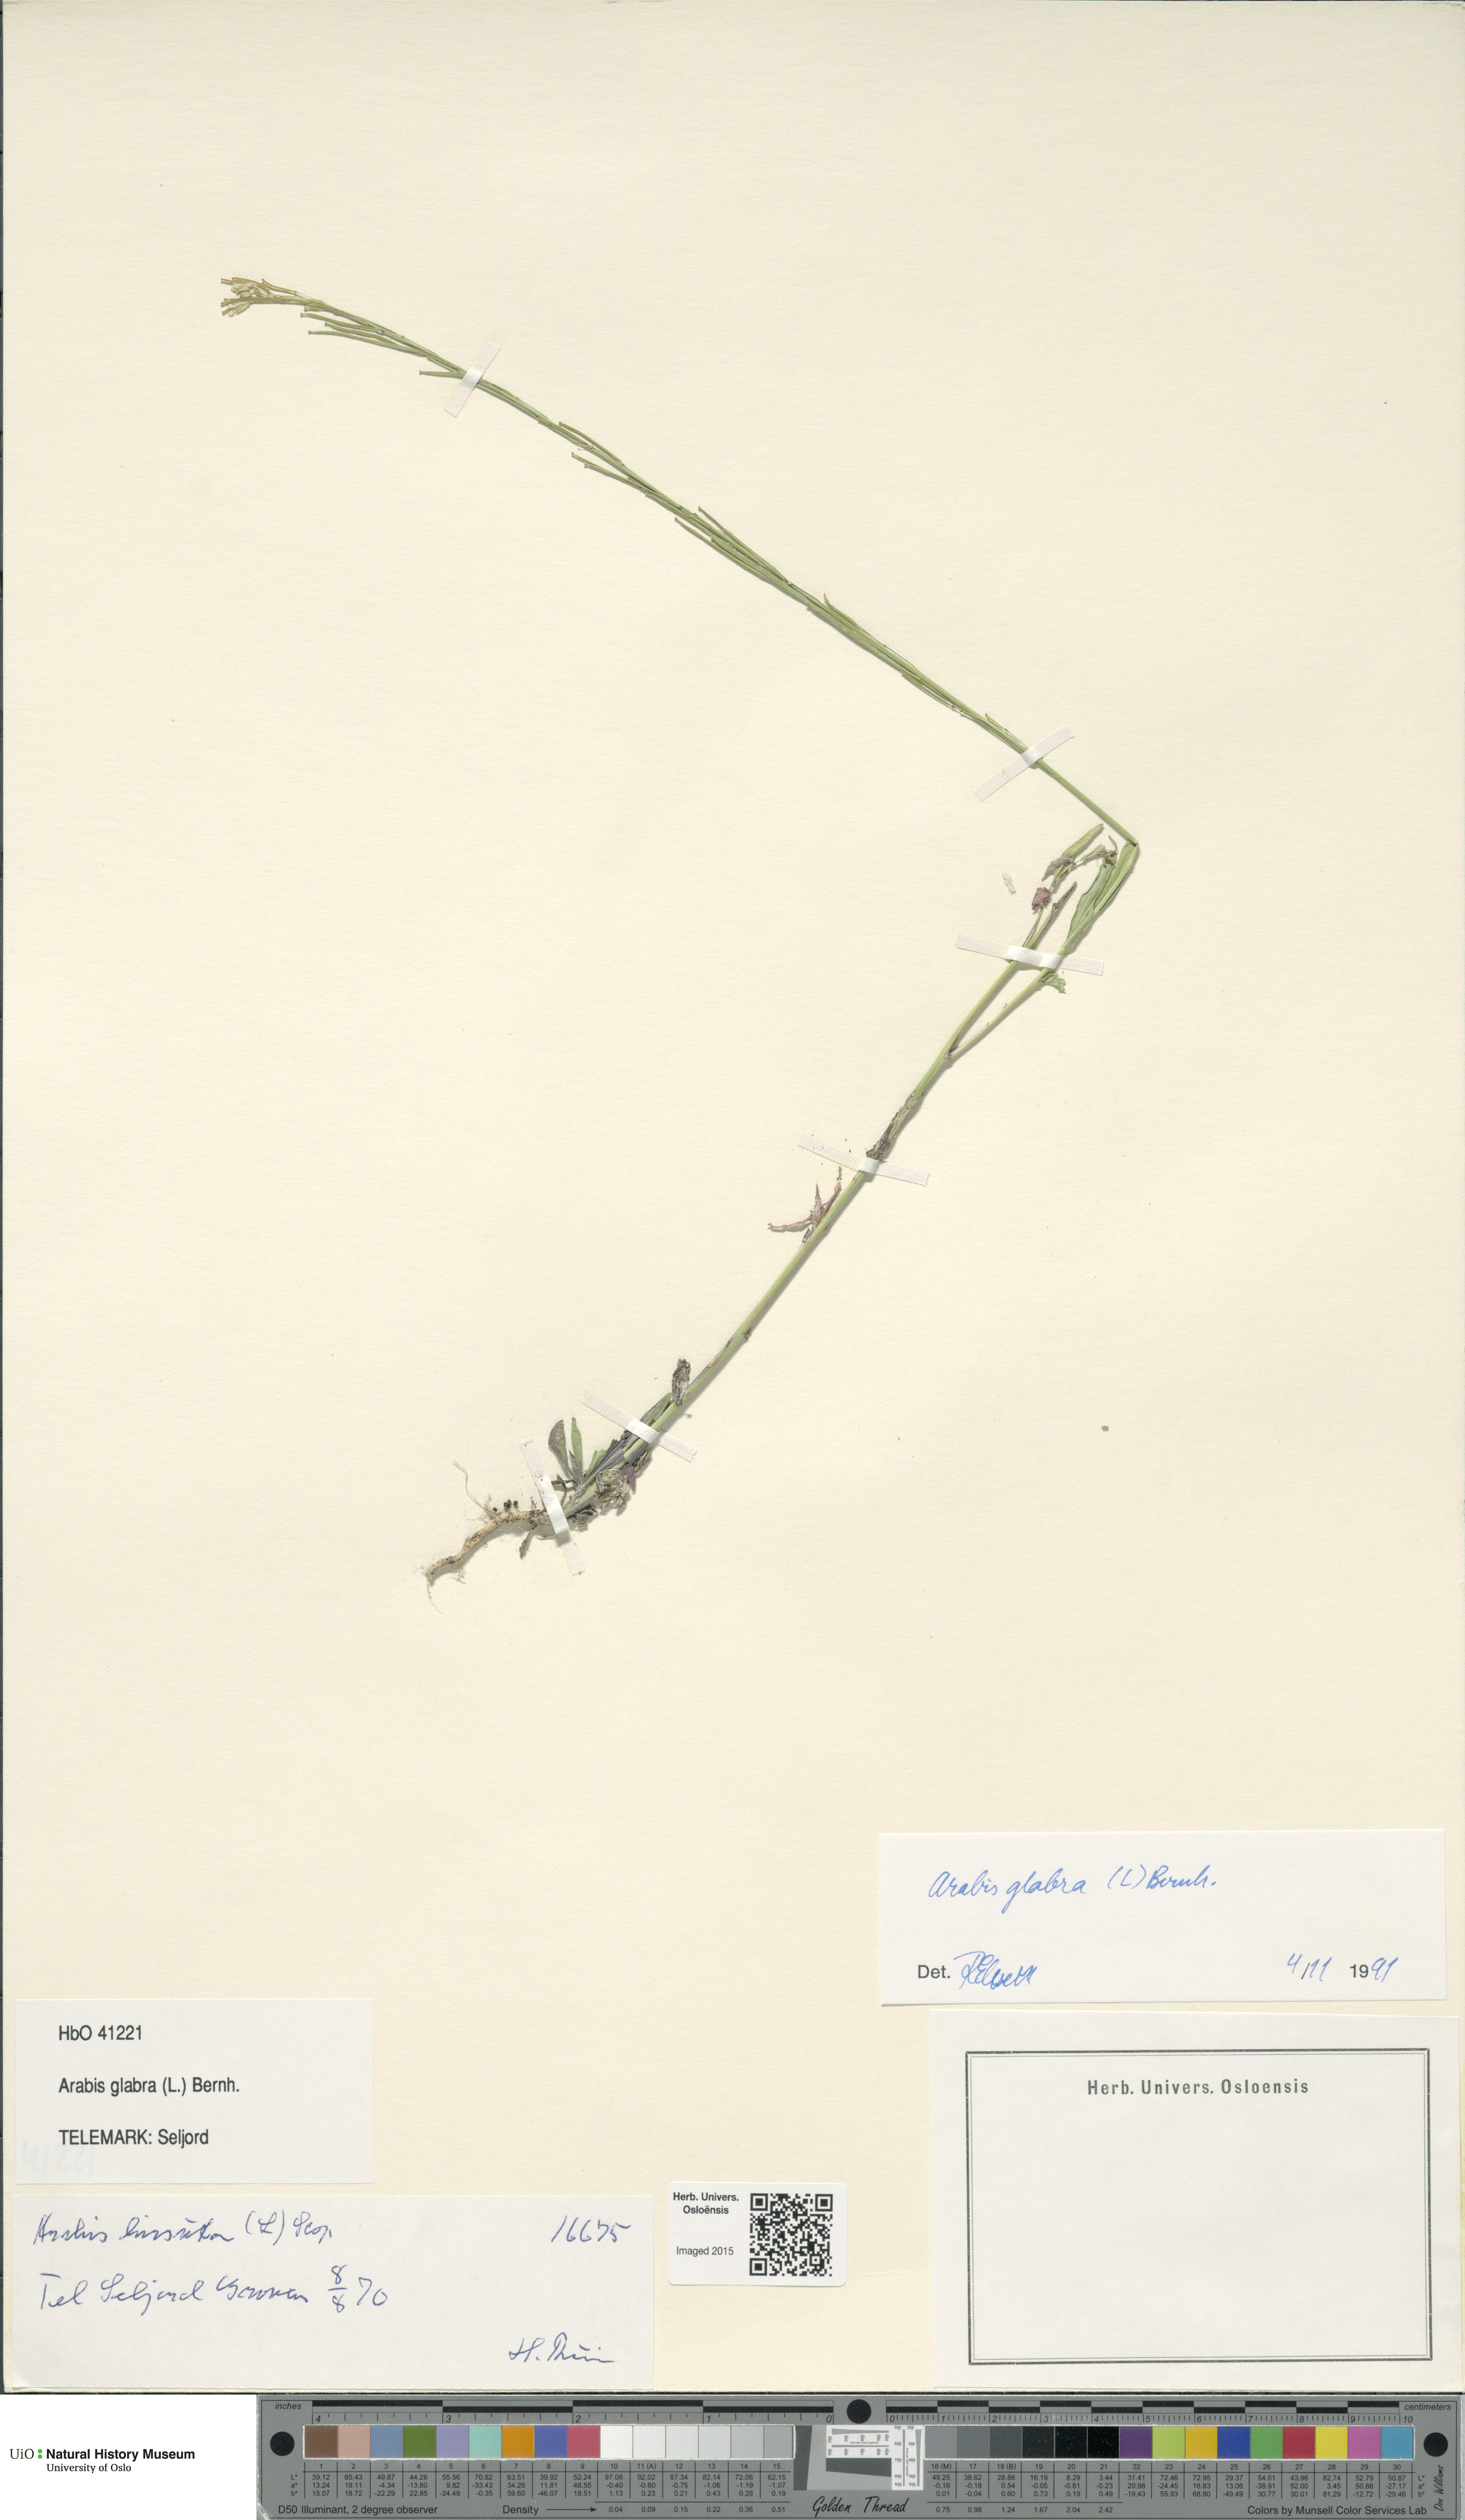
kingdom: Plantae
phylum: Tracheophyta
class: Magnoliopsida
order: Brassicales
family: Brassicaceae
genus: Turritis
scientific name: Turritis glabra
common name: Tower rockcress
